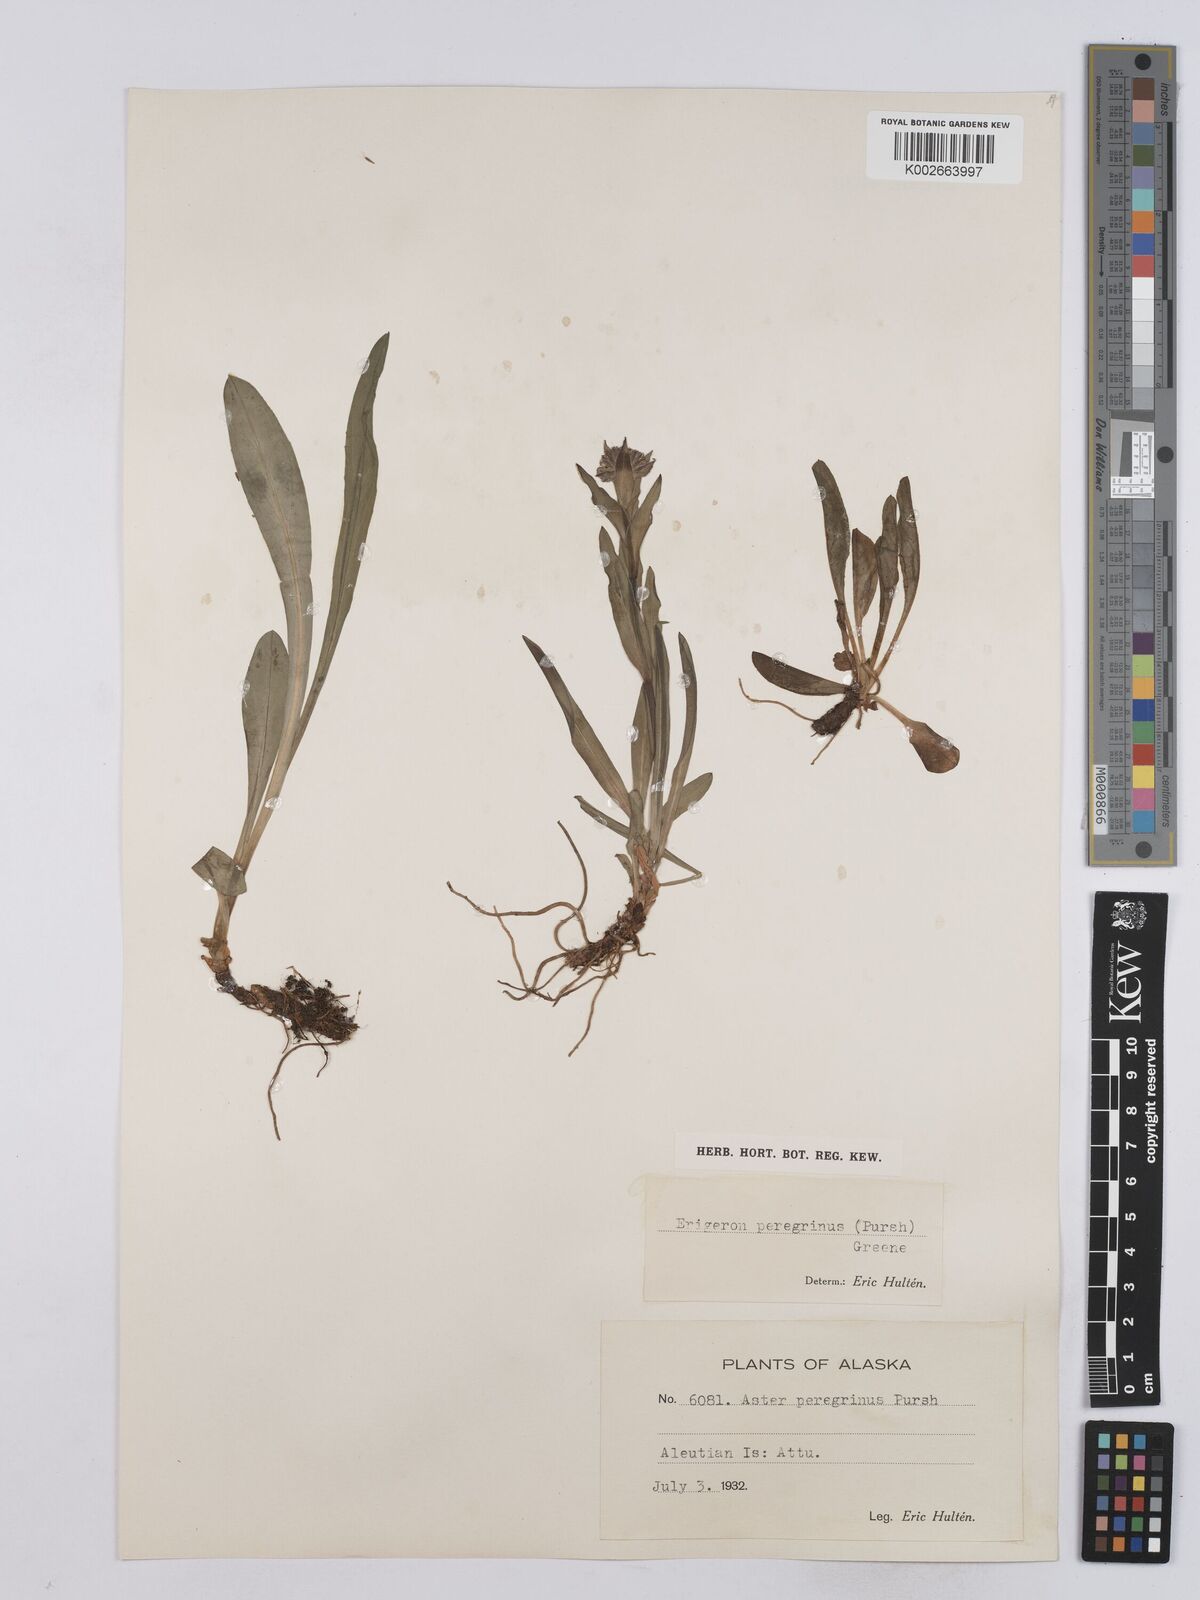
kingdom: Plantae
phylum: Tracheophyta
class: Magnoliopsida
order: Asterales
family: Asteraceae
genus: Erigeron
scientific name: Erigeron peregrinus
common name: Peregrine fleabane
